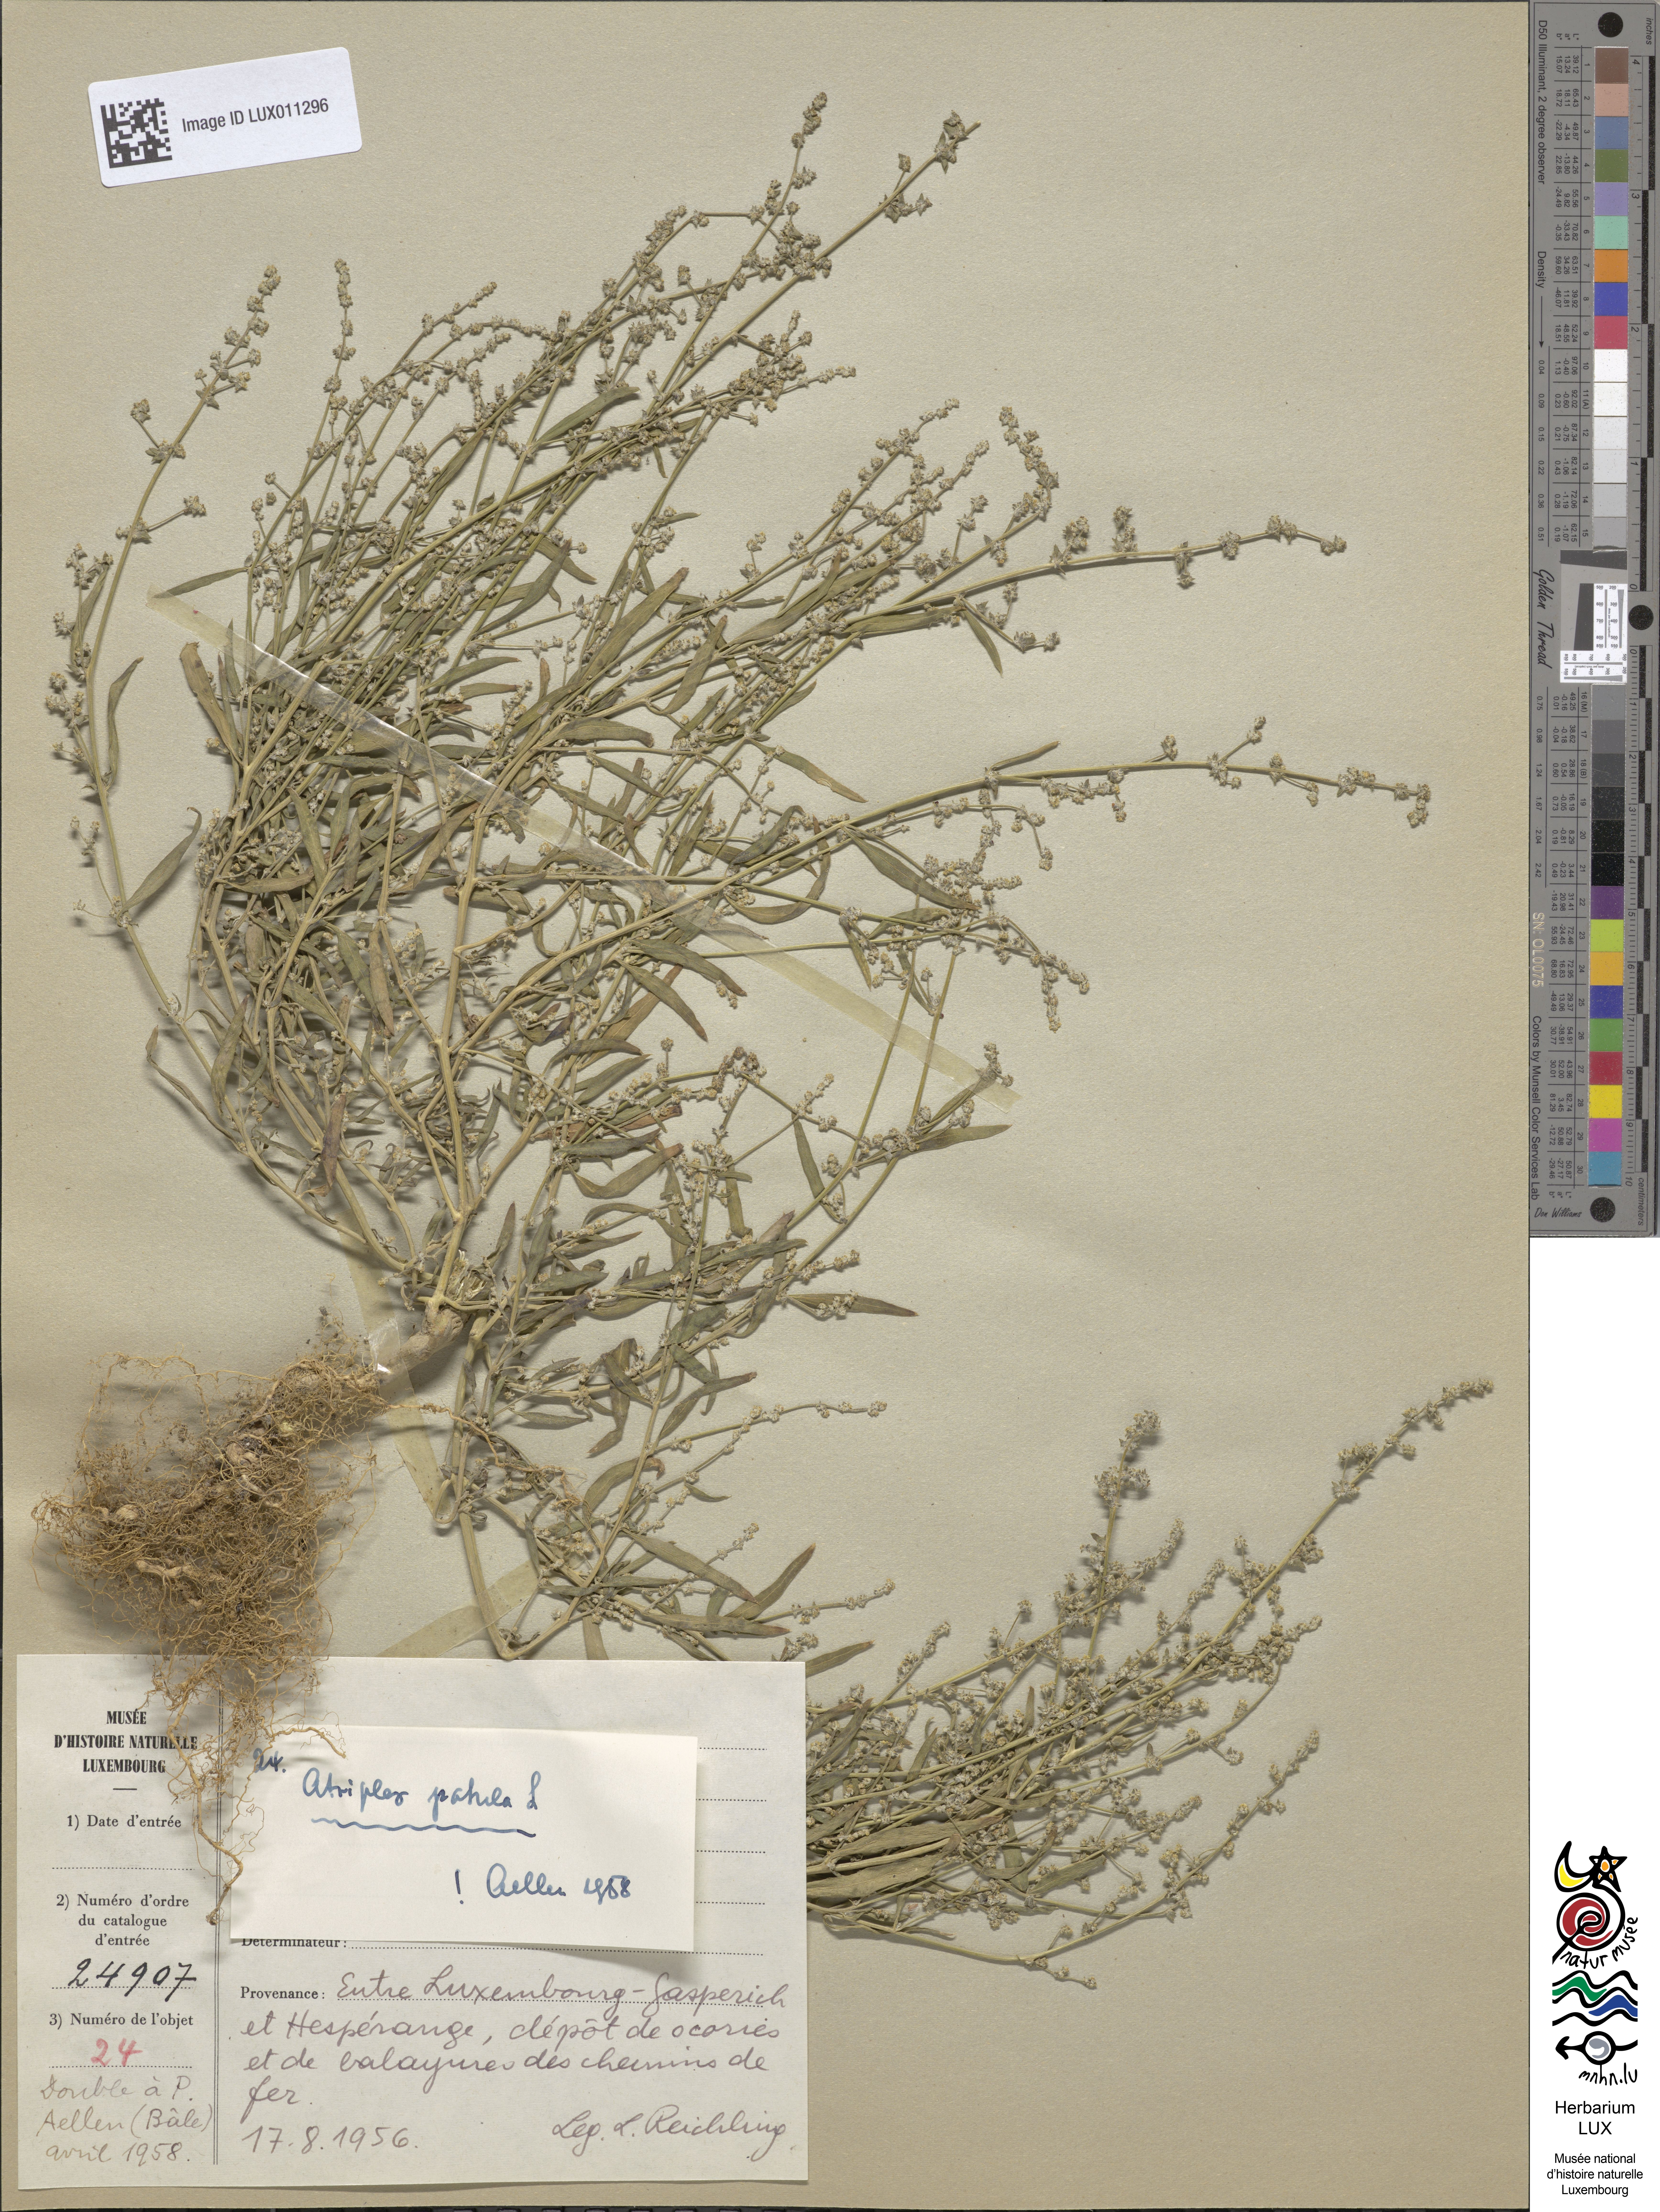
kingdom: Plantae
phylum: Tracheophyta
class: Magnoliopsida
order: Caryophyllales
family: Amaranthaceae
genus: Atriplex
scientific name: Atriplex patula
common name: Common orache
